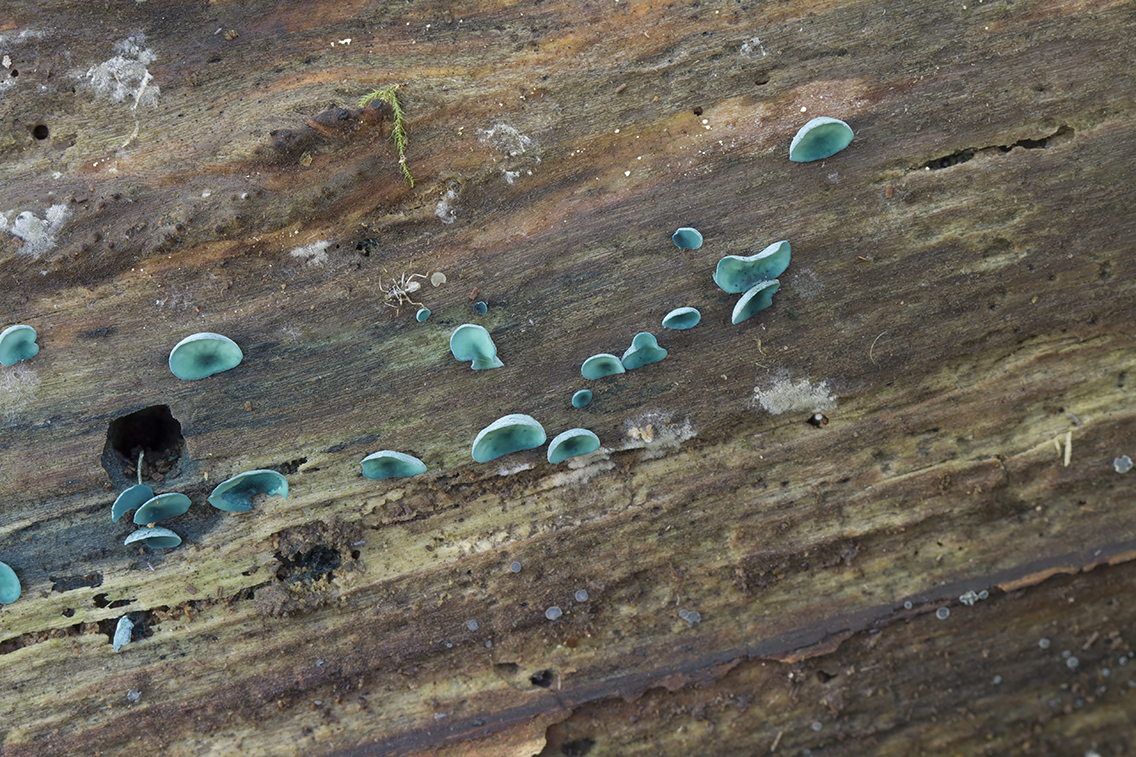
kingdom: Fungi
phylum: Ascomycota
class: Leotiomycetes
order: Helotiales
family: Chlorociboriaceae
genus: Chlorociboria
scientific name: Chlorociboria aeruginascens
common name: almindelig grønskive
